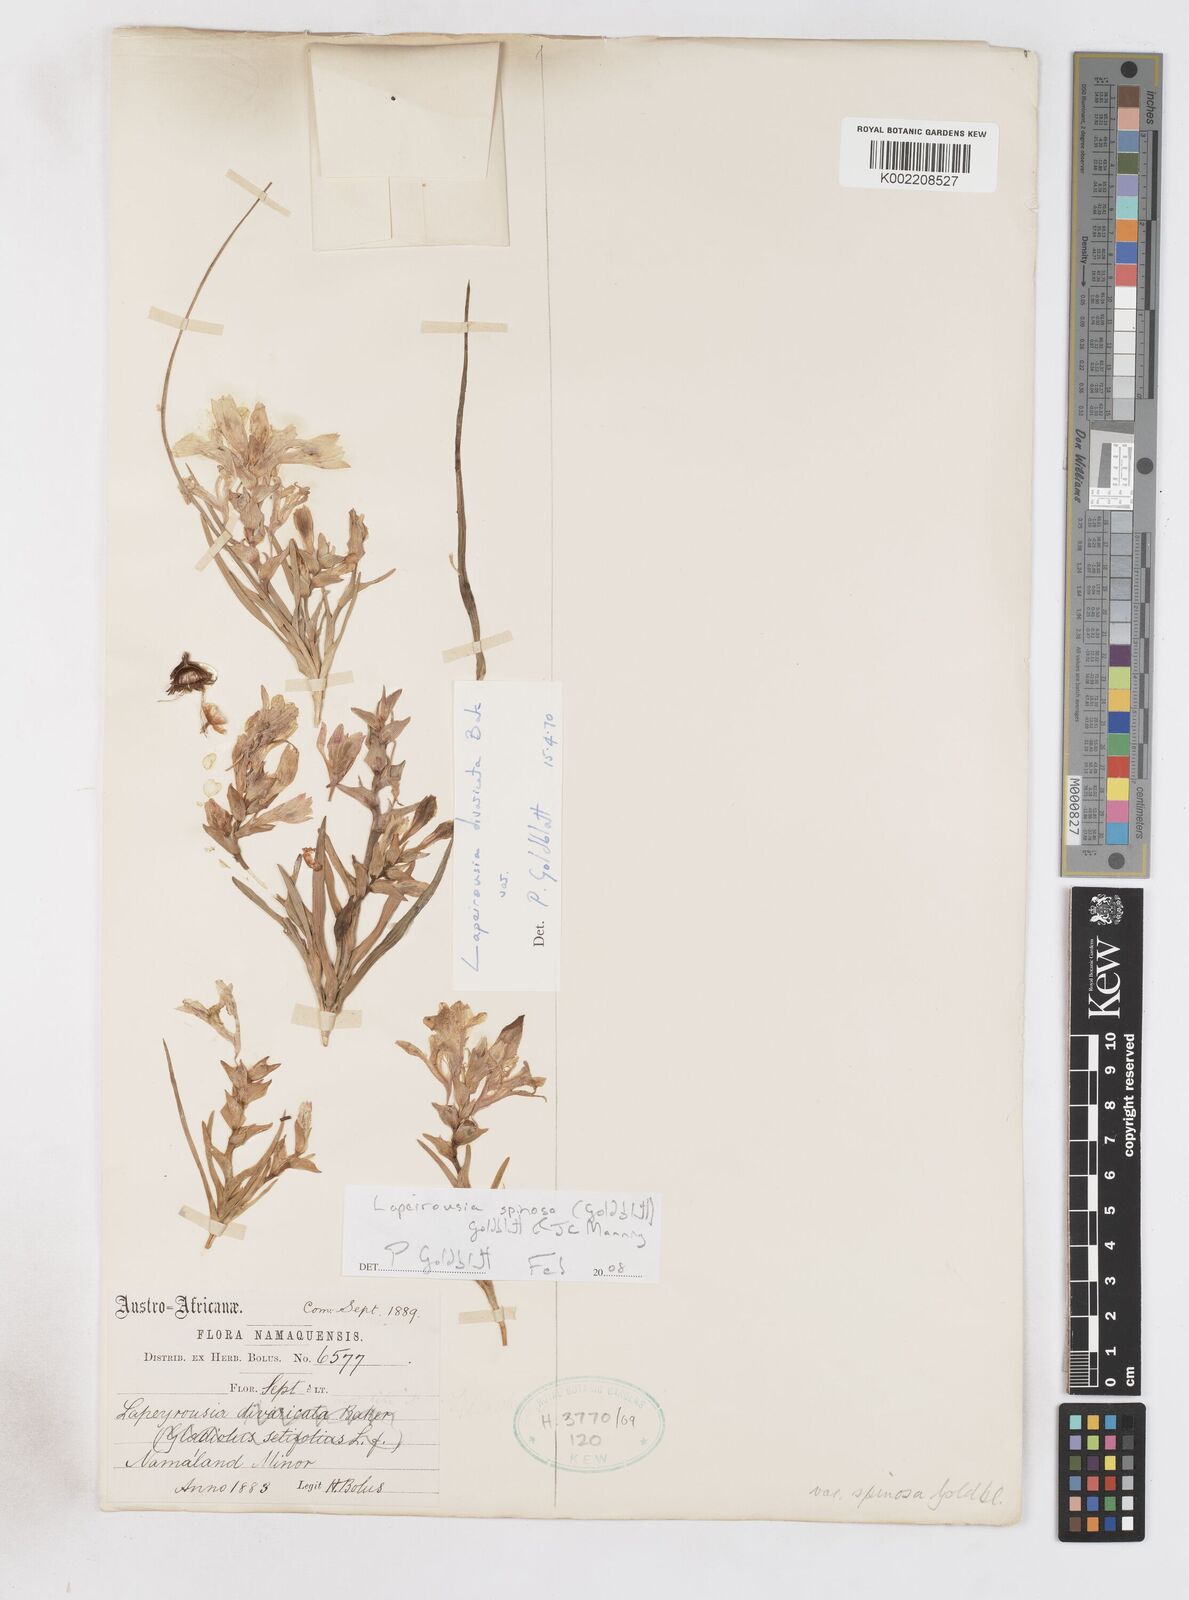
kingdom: Plantae
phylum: Tracheophyta
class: Liliopsida
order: Asparagales
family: Iridaceae
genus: Lapeirousia
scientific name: Lapeirousia spinosa
